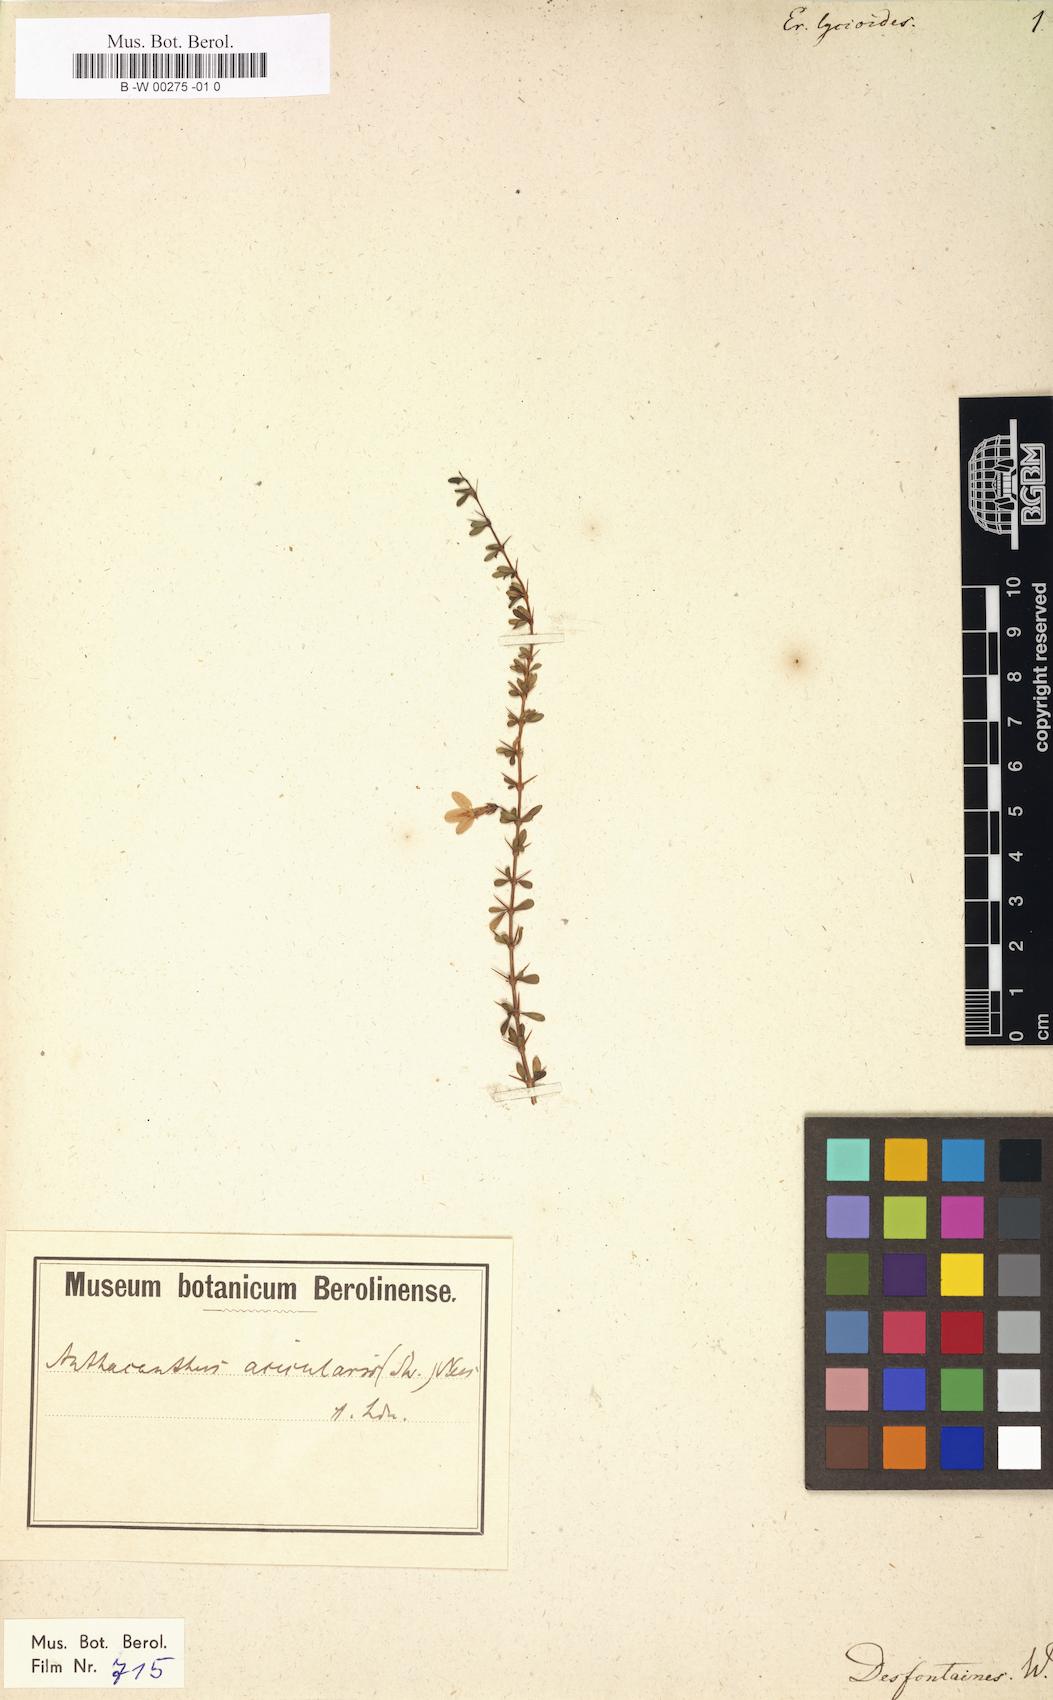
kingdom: Plantae
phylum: Tracheophyta
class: Magnoliopsida
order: Lamiales
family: Acanthaceae
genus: Oplonia
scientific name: Oplonia microphylla
